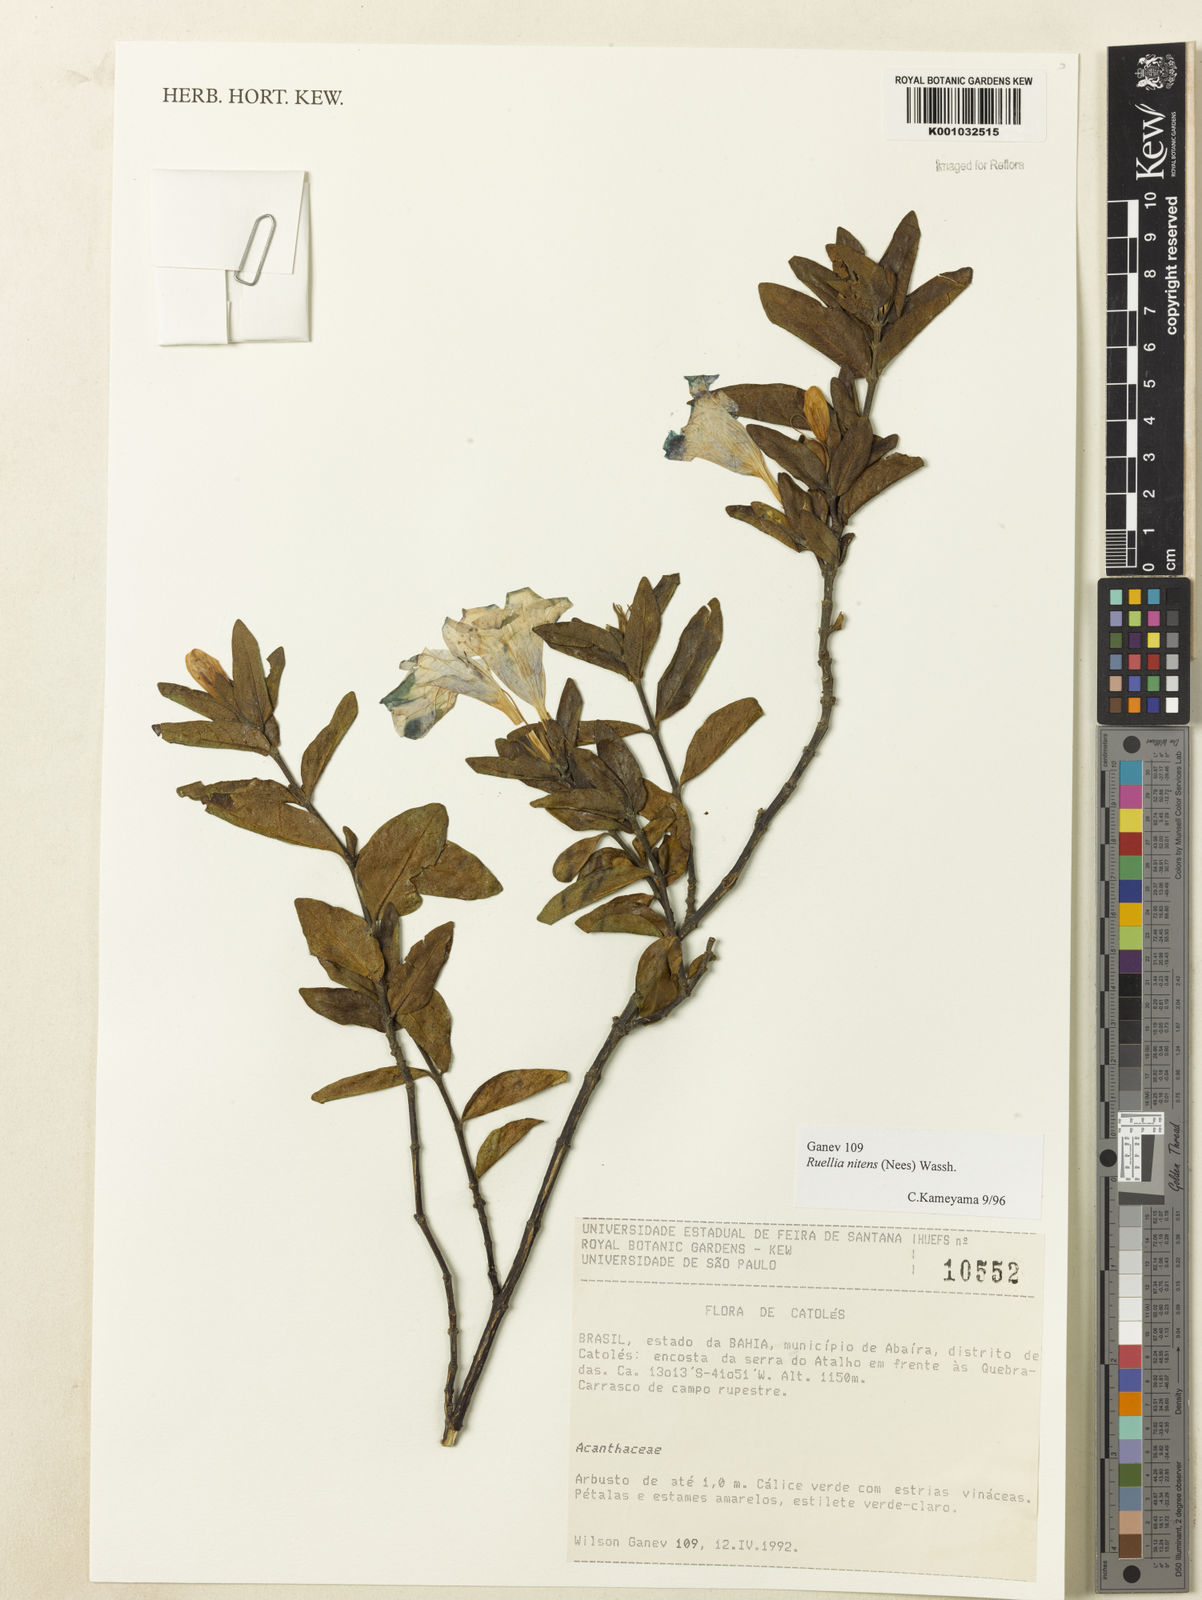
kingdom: Plantae
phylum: Tracheophyta
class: Magnoliopsida
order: Lamiales
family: Acanthaceae
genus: Ruellia
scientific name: Ruellia nitens
